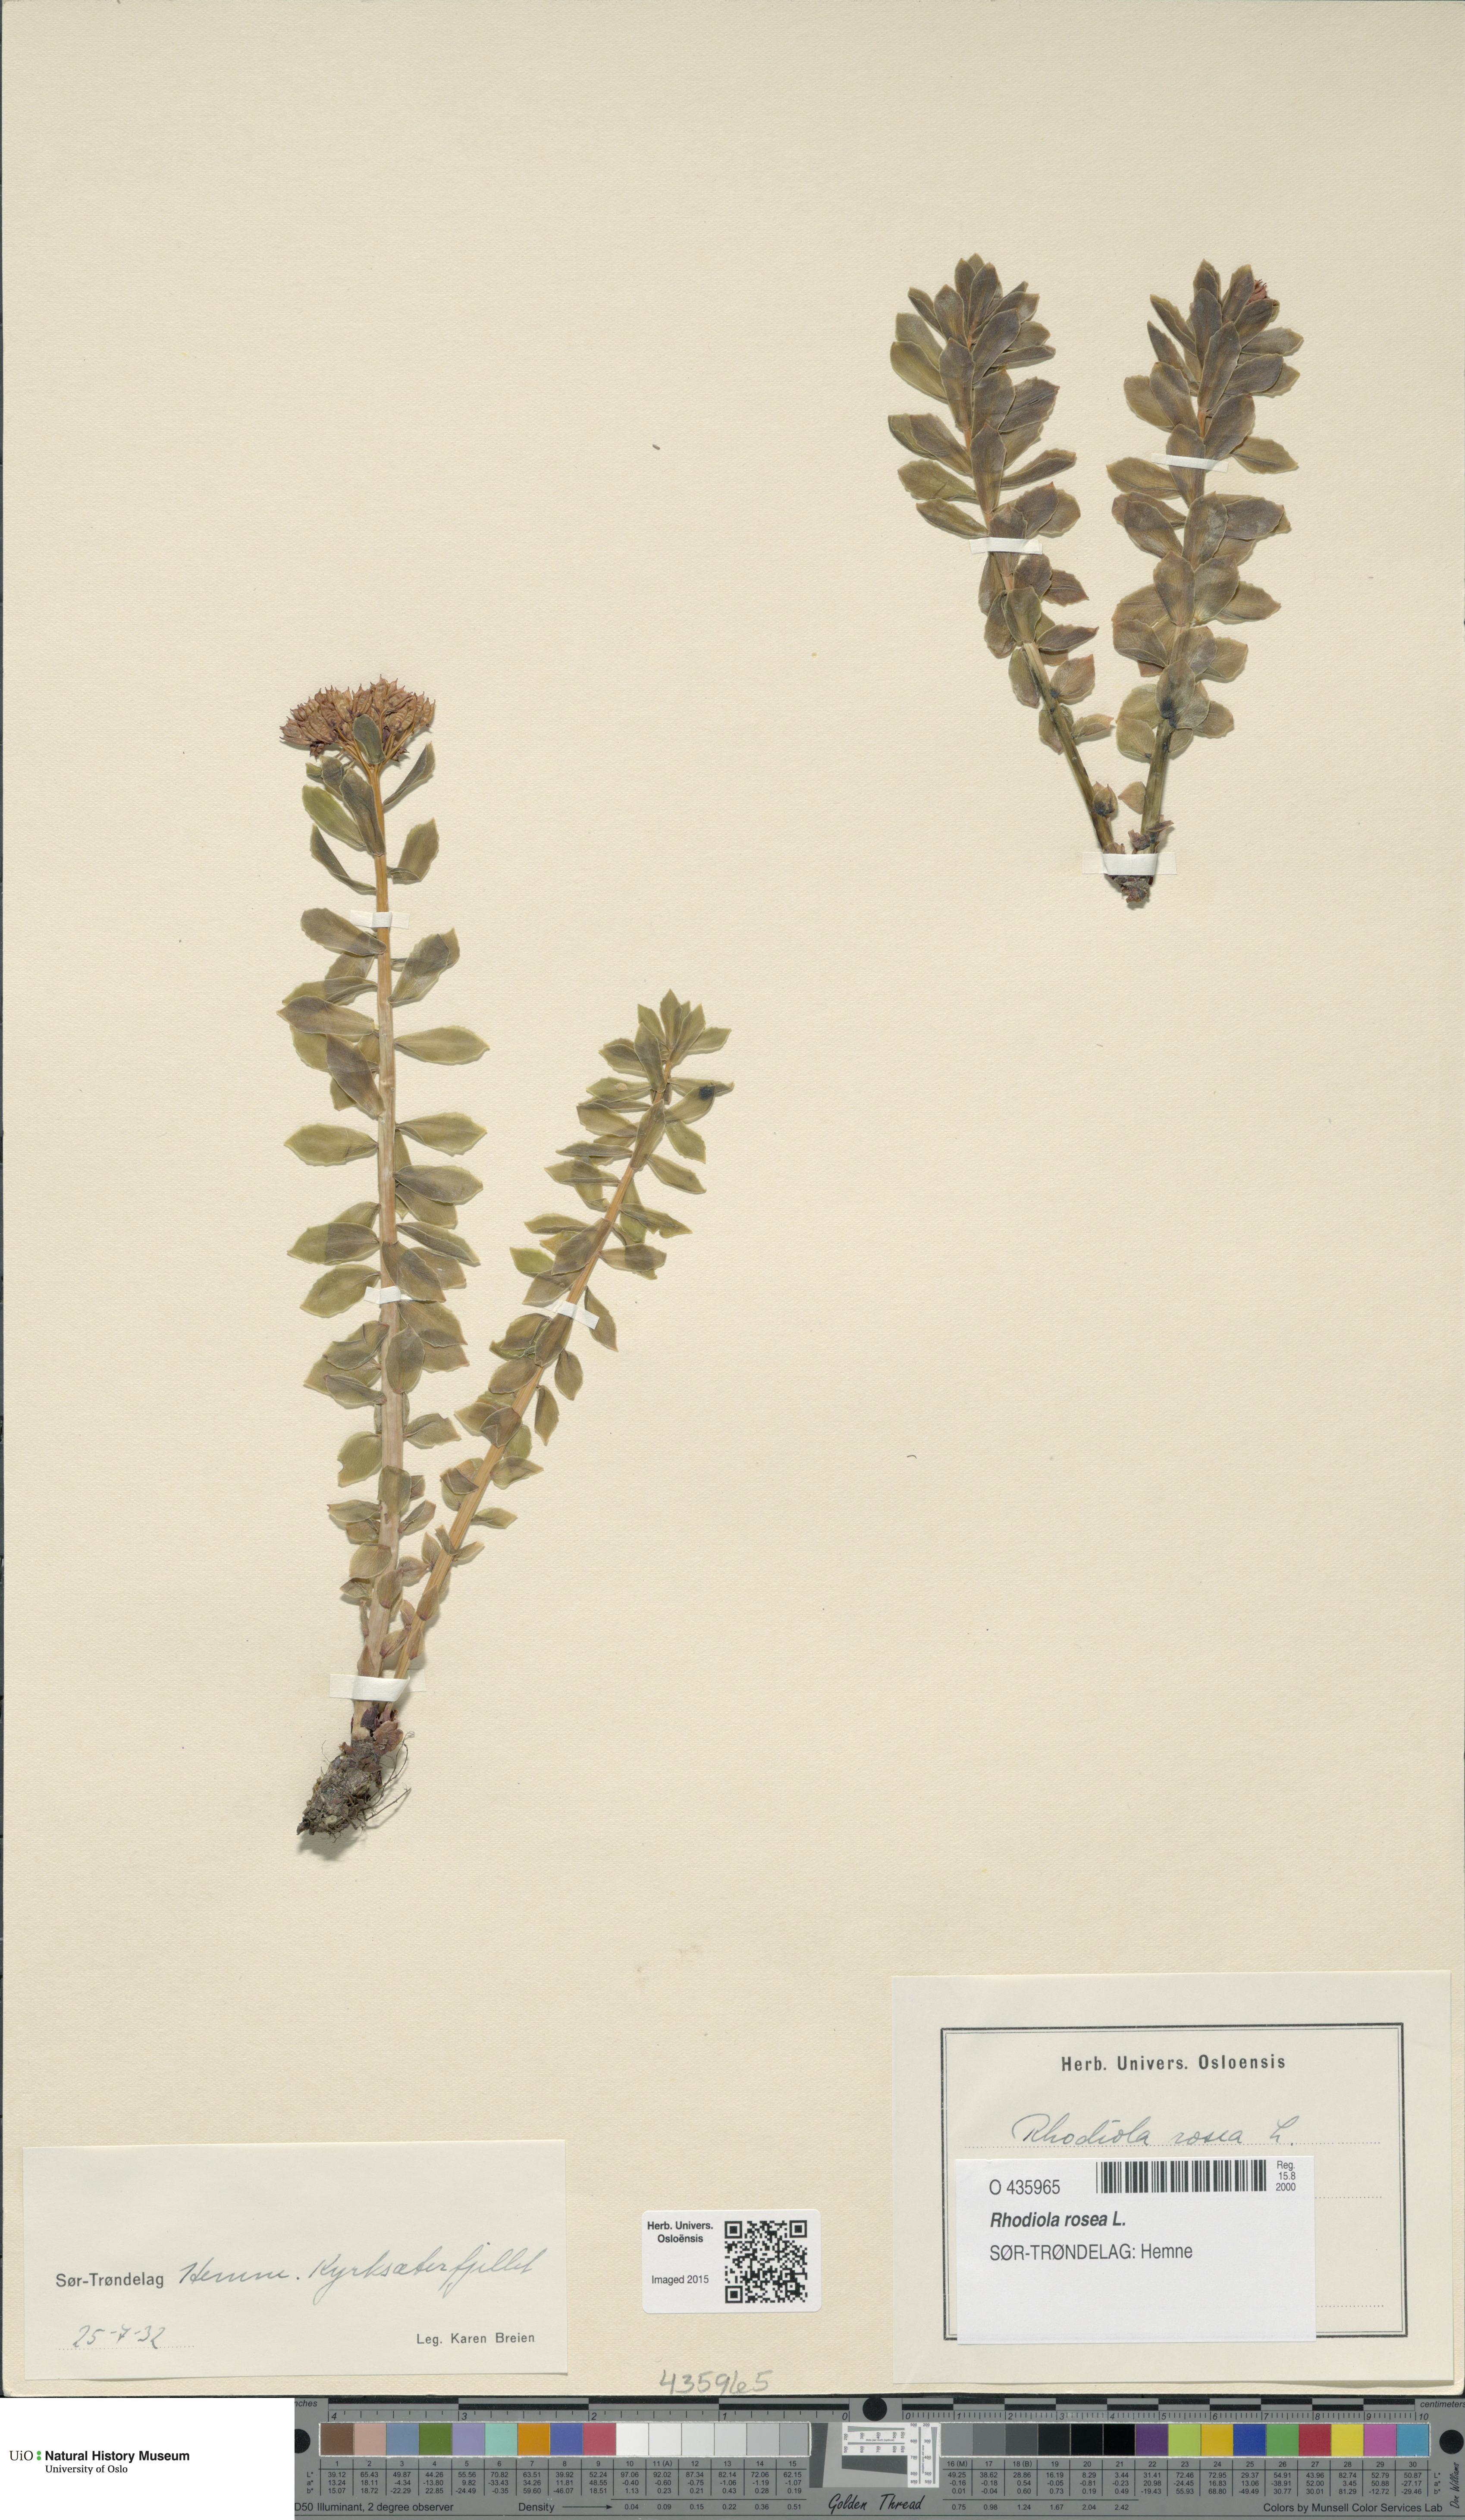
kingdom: Plantae
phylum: Tracheophyta
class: Magnoliopsida
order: Saxifragales
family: Crassulaceae
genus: Rhodiola
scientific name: Rhodiola rosea
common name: Roseroot
